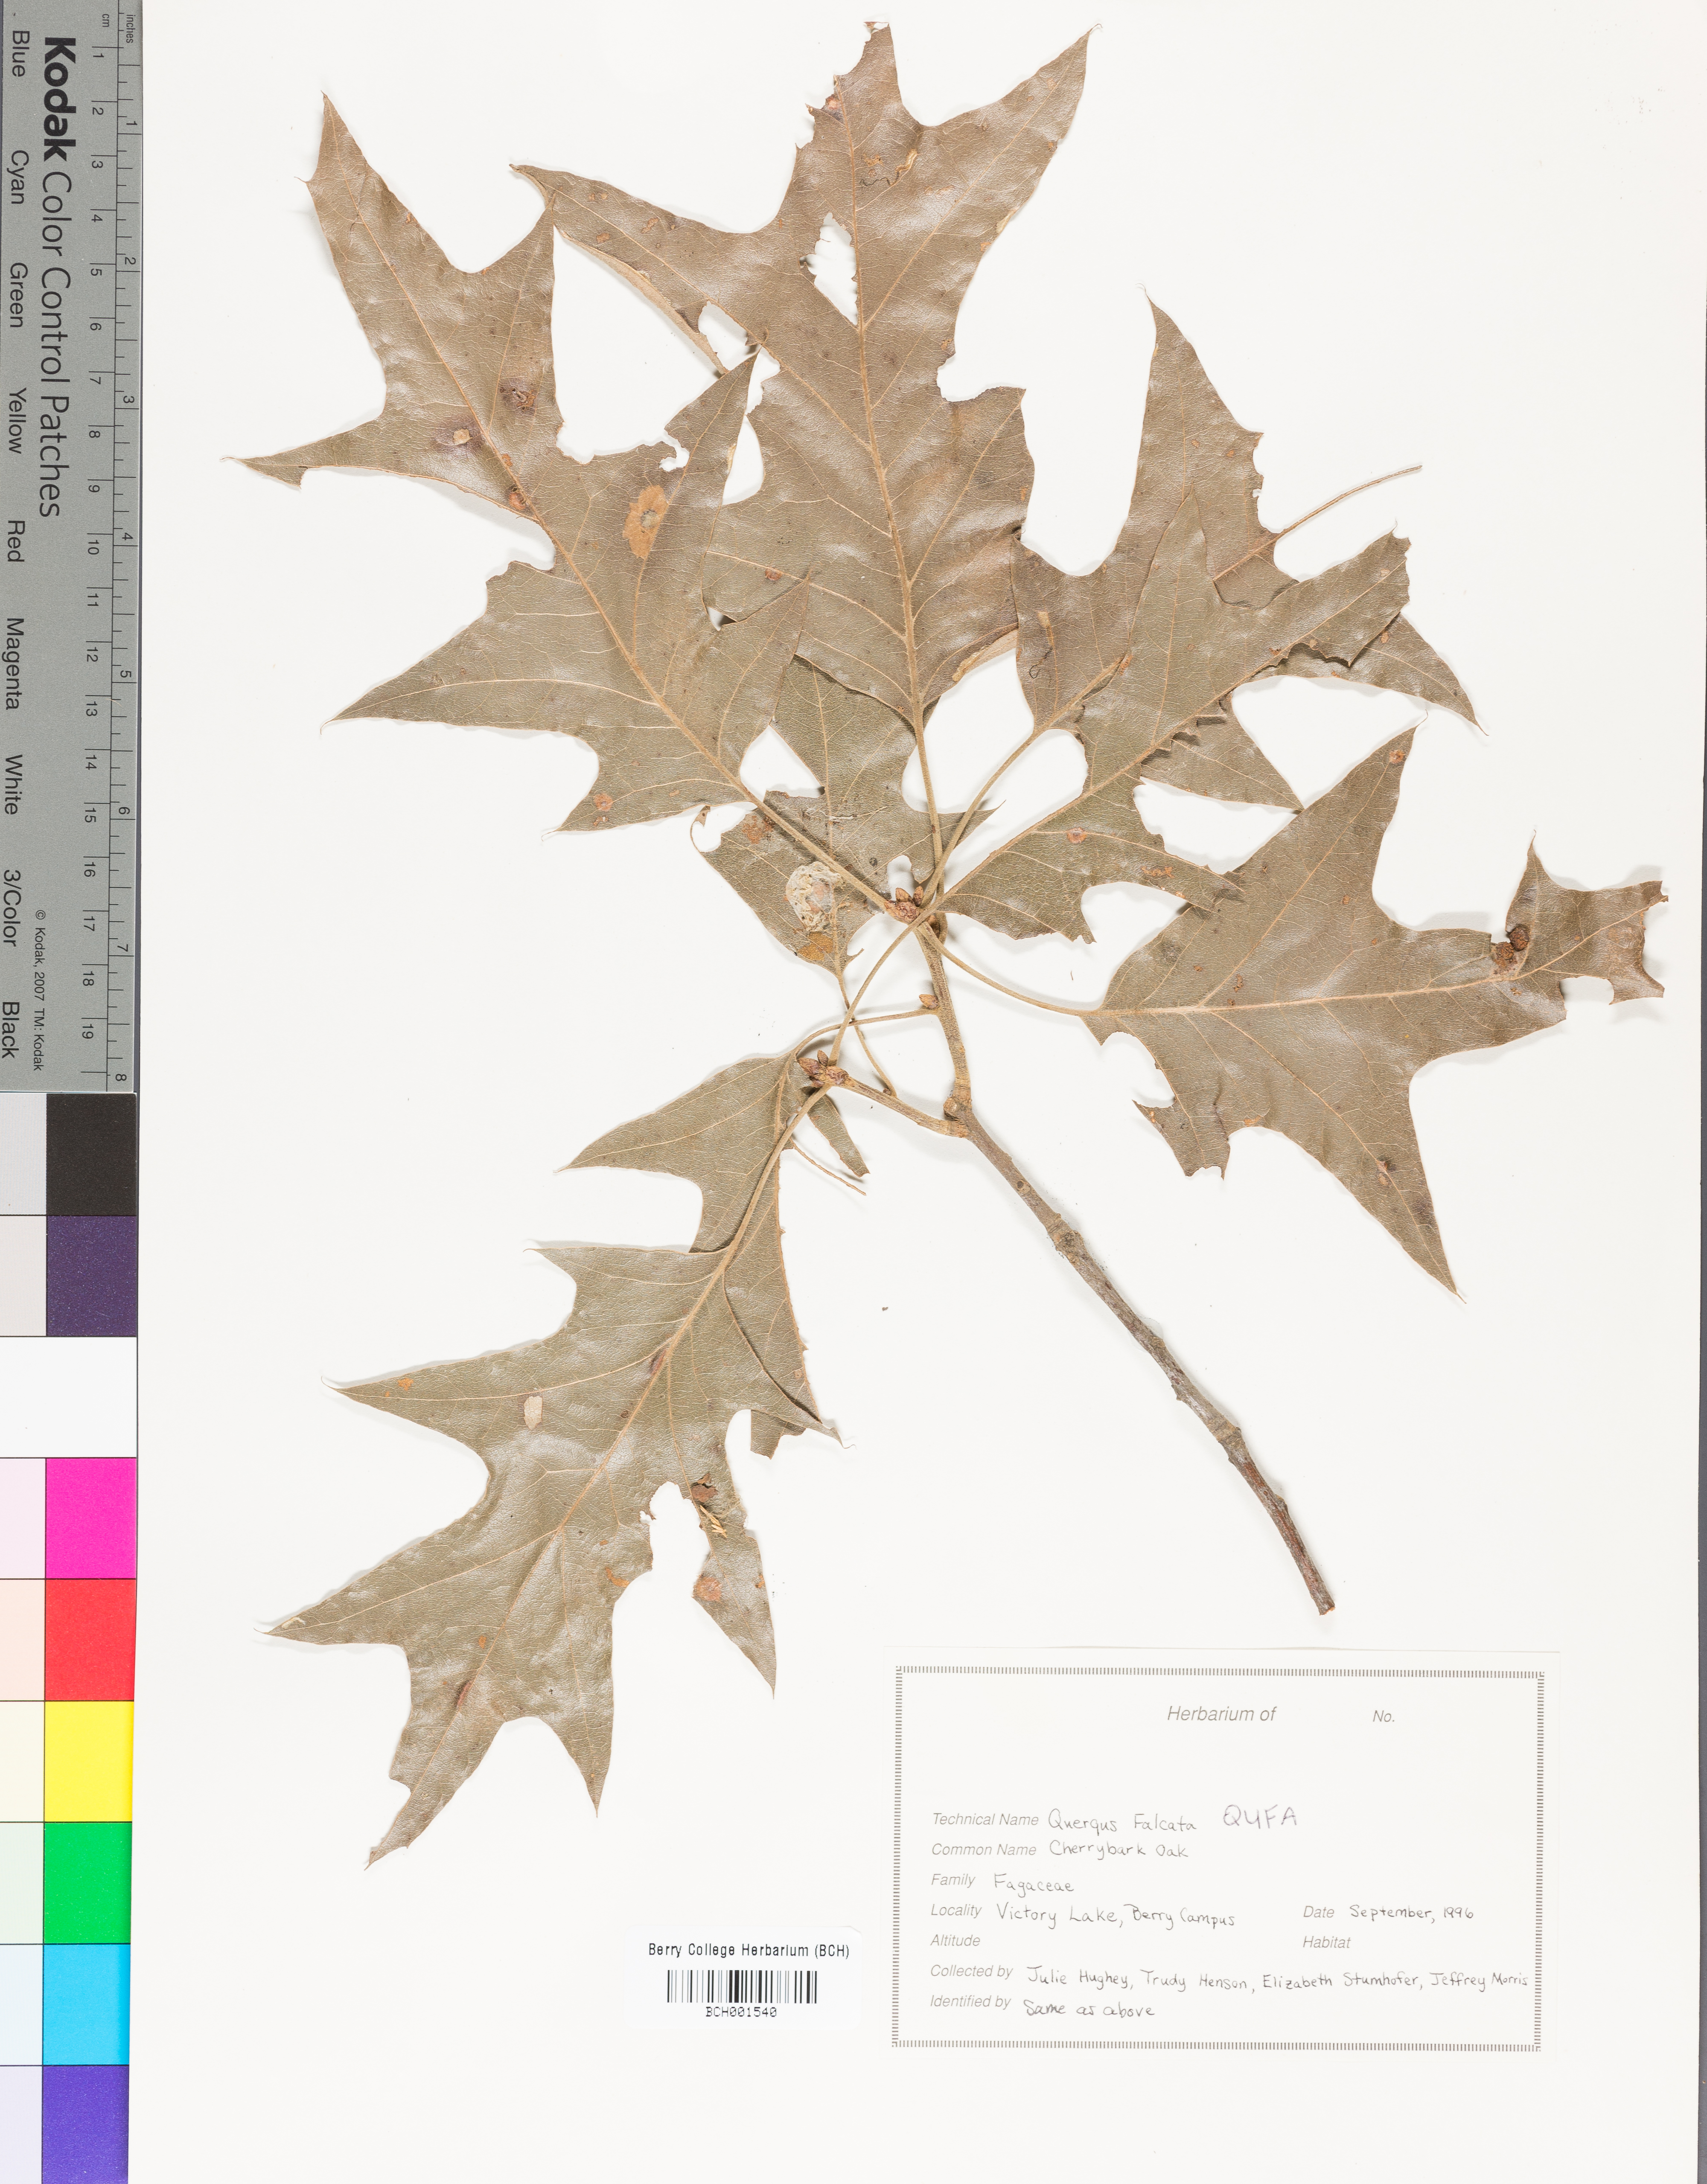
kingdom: Plantae
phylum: Tracheophyta
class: Magnoliopsida
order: Fagales
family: Fagaceae
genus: Quercus
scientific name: Quercus falcata
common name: Southern red oak
